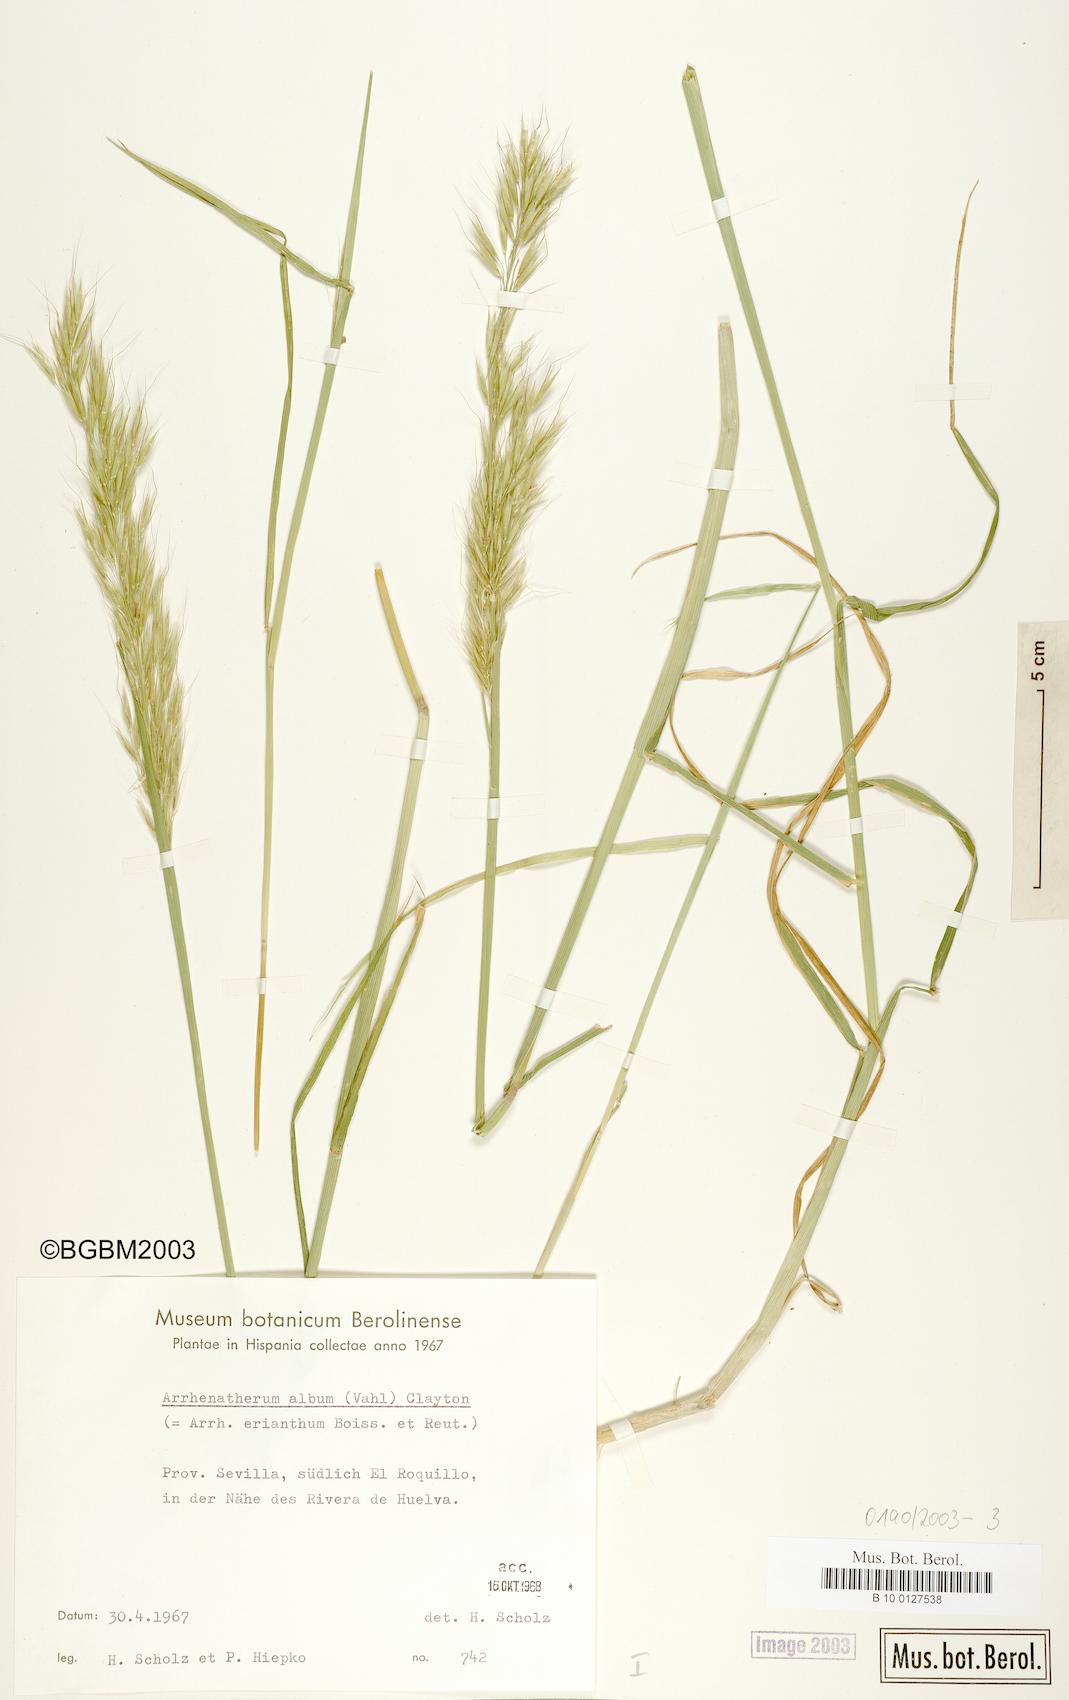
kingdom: Plantae
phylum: Tracheophyta
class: Liliopsida
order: Poales
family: Poaceae
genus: Arrhenatherum
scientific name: Arrhenatherum album
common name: Tall oat grass
